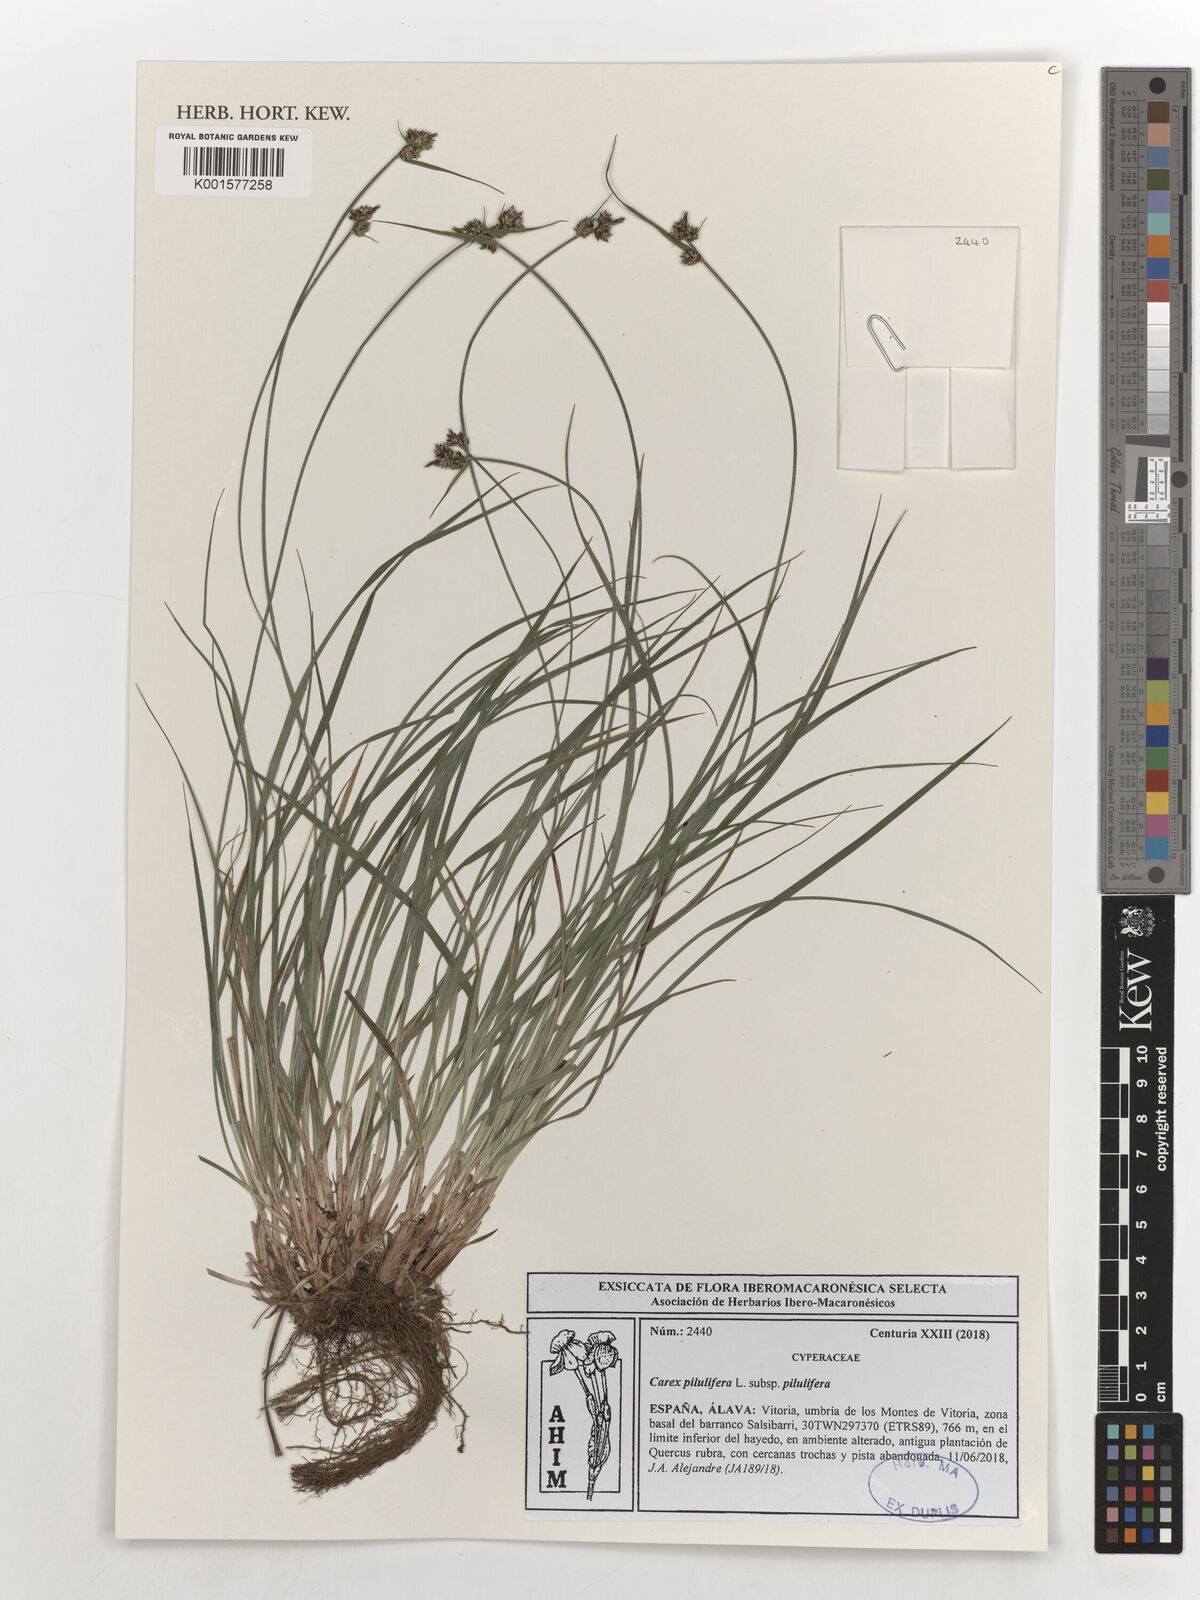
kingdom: Plantae
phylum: Tracheophyta
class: Liliopsida
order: Poales
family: Cyperaceae
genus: Carex
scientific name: Carex pilulifera
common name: Pill sedge
